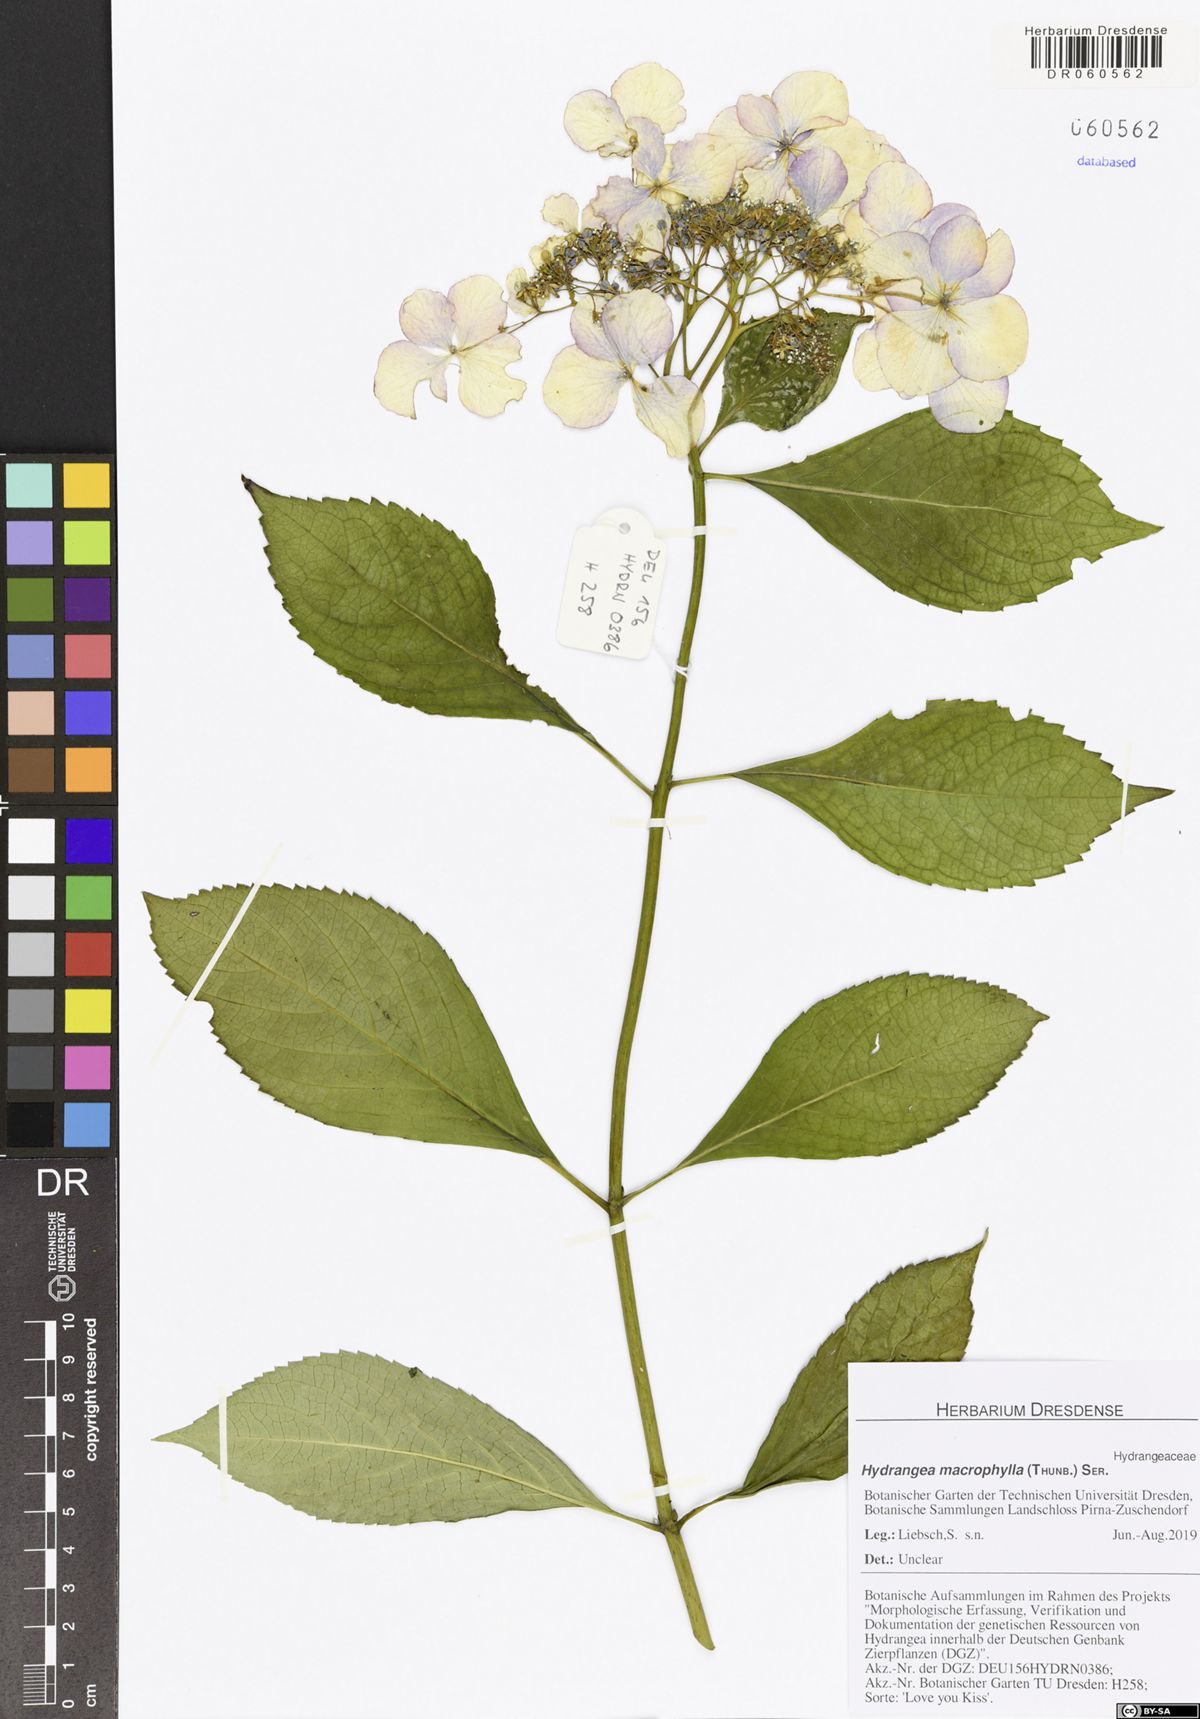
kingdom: Plantae
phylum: Tracheophyta
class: Magnoliopsida
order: Cornales
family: Hydrangeaceae
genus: Hydrangea
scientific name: Hydrangea macrophylla
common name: Hydrangea
